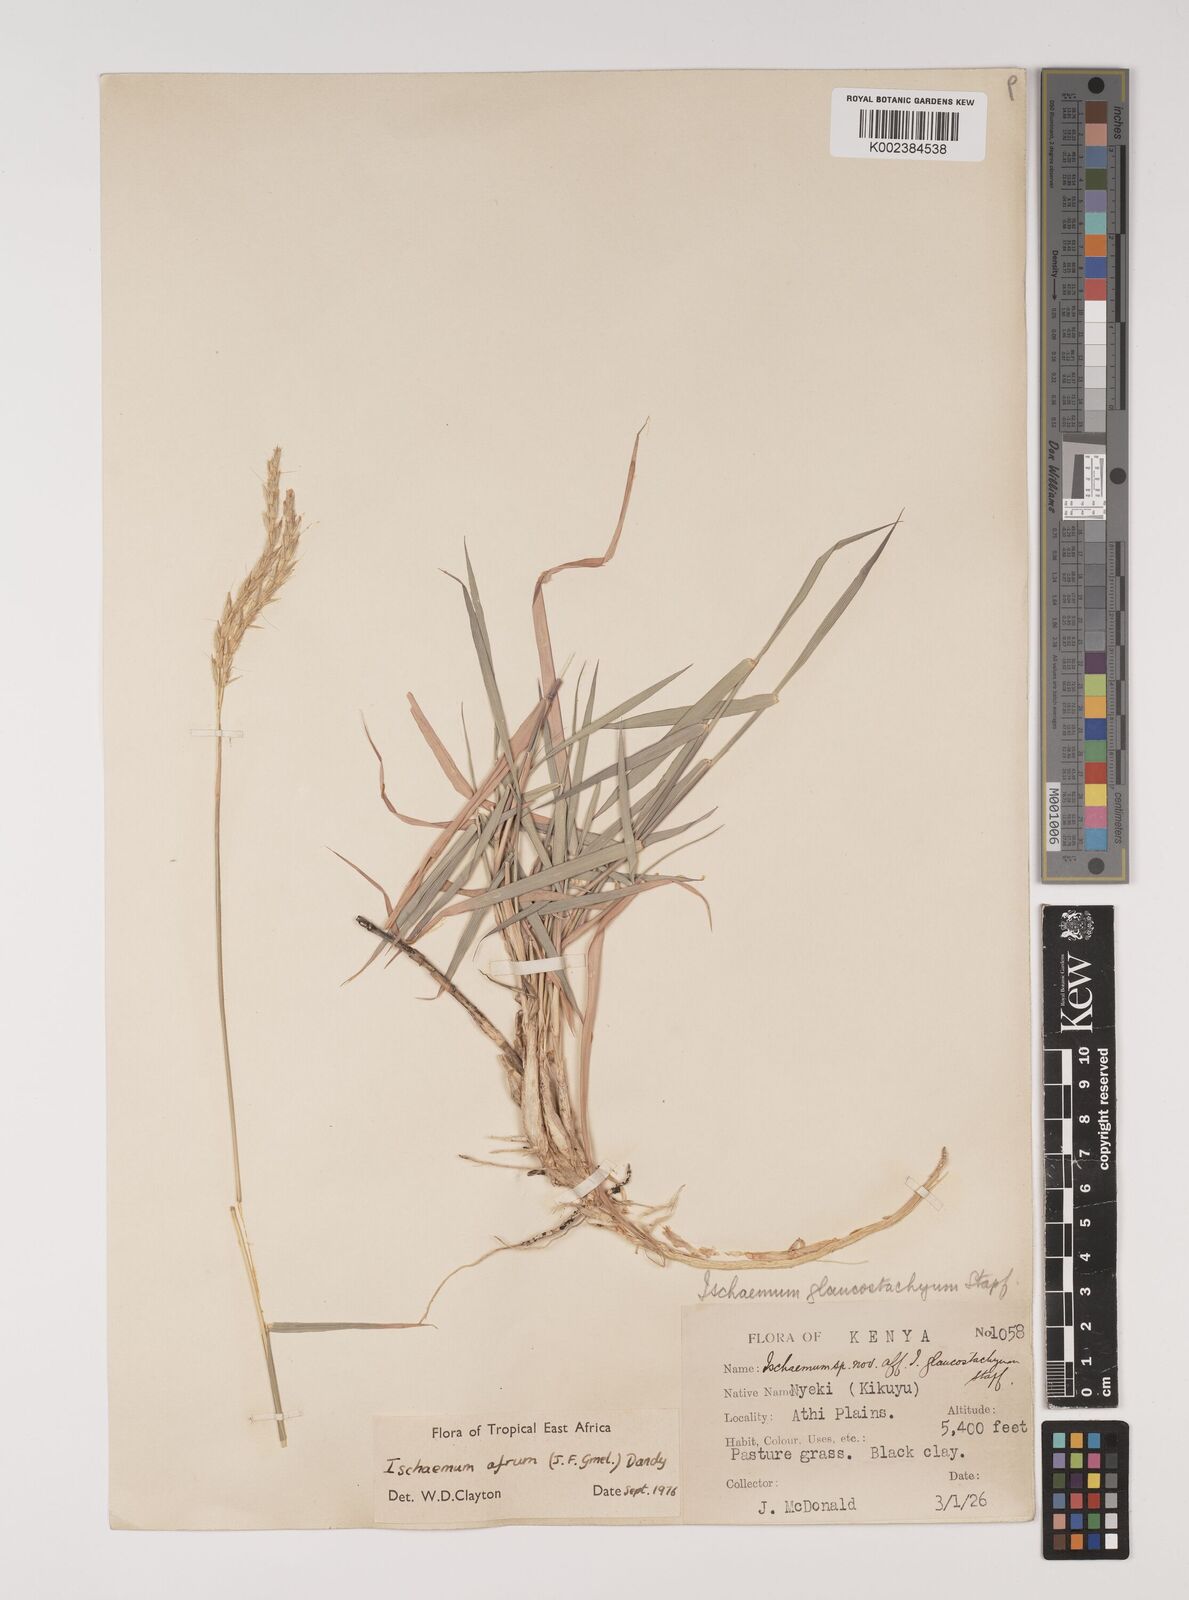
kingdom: Plantae
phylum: Tracheophyta
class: Liliopsida
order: Poales
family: Poaceae
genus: Ischaemum
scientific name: Ischaemum afrum
